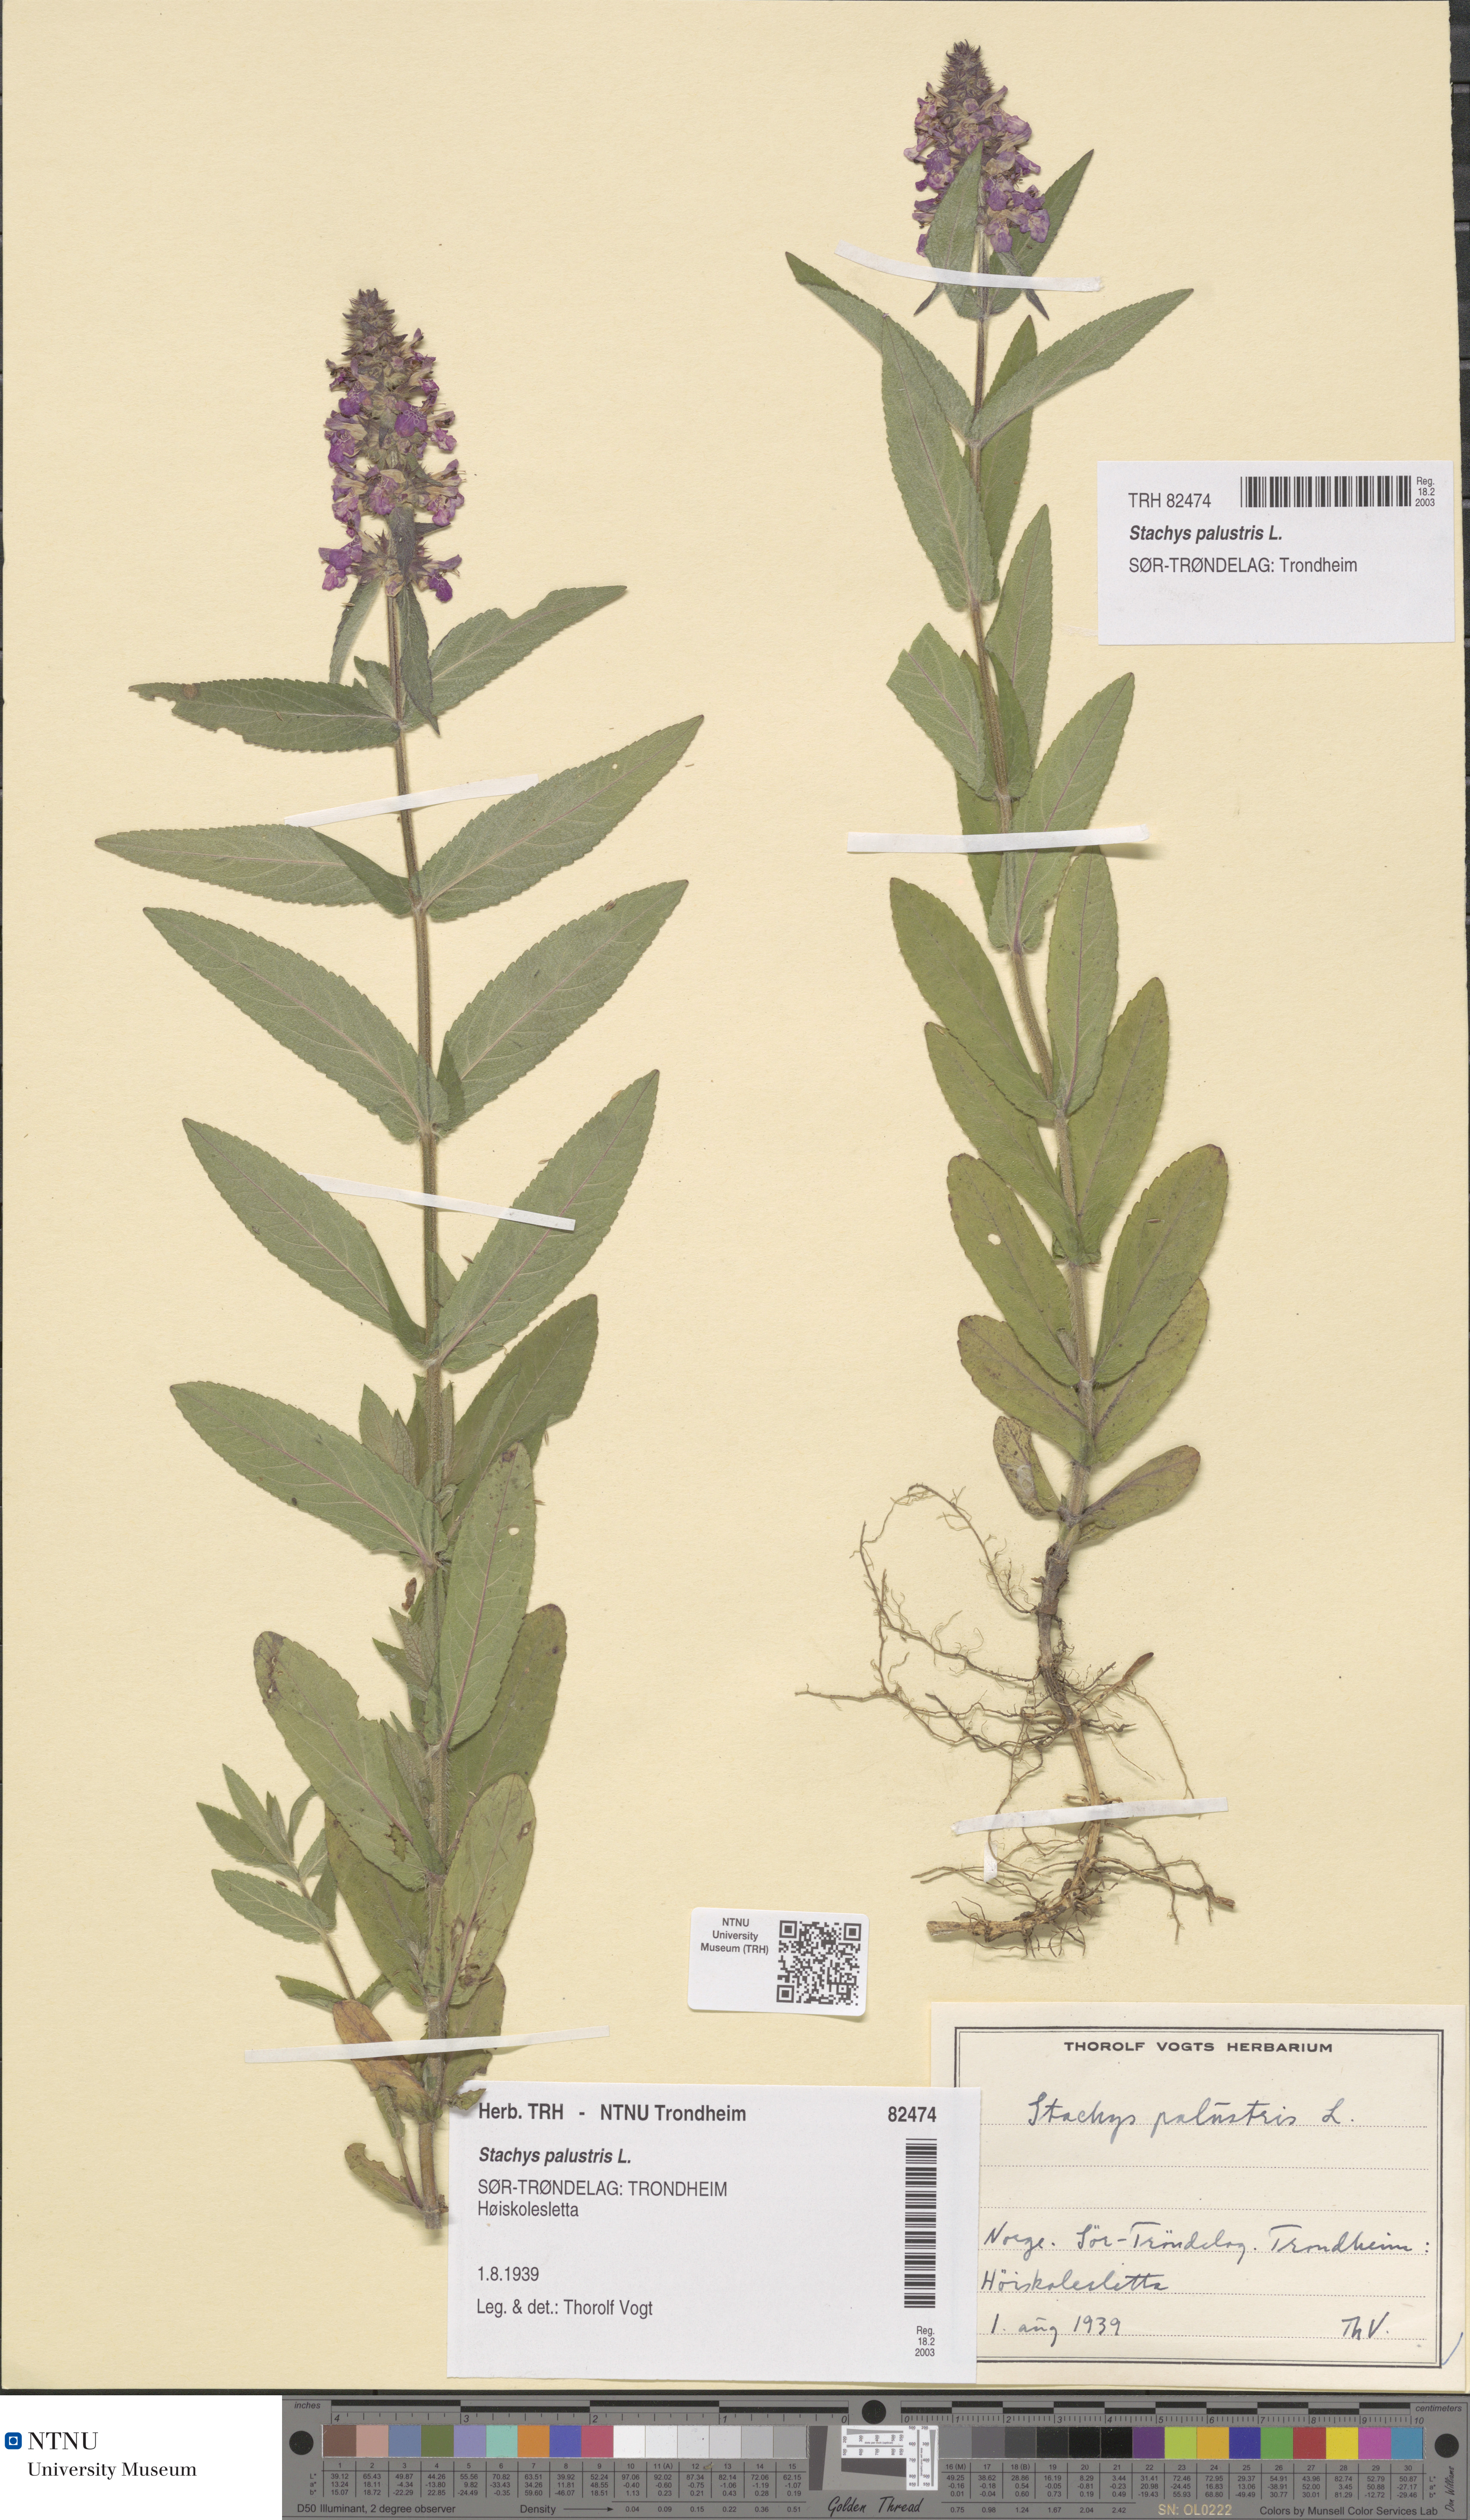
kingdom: Plantae
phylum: Tracheophyta
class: Magnoliopsida
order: Lamiales
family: Lamiaceae
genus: Stachys
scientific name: Stachys palustris
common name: Marsh woundwort
